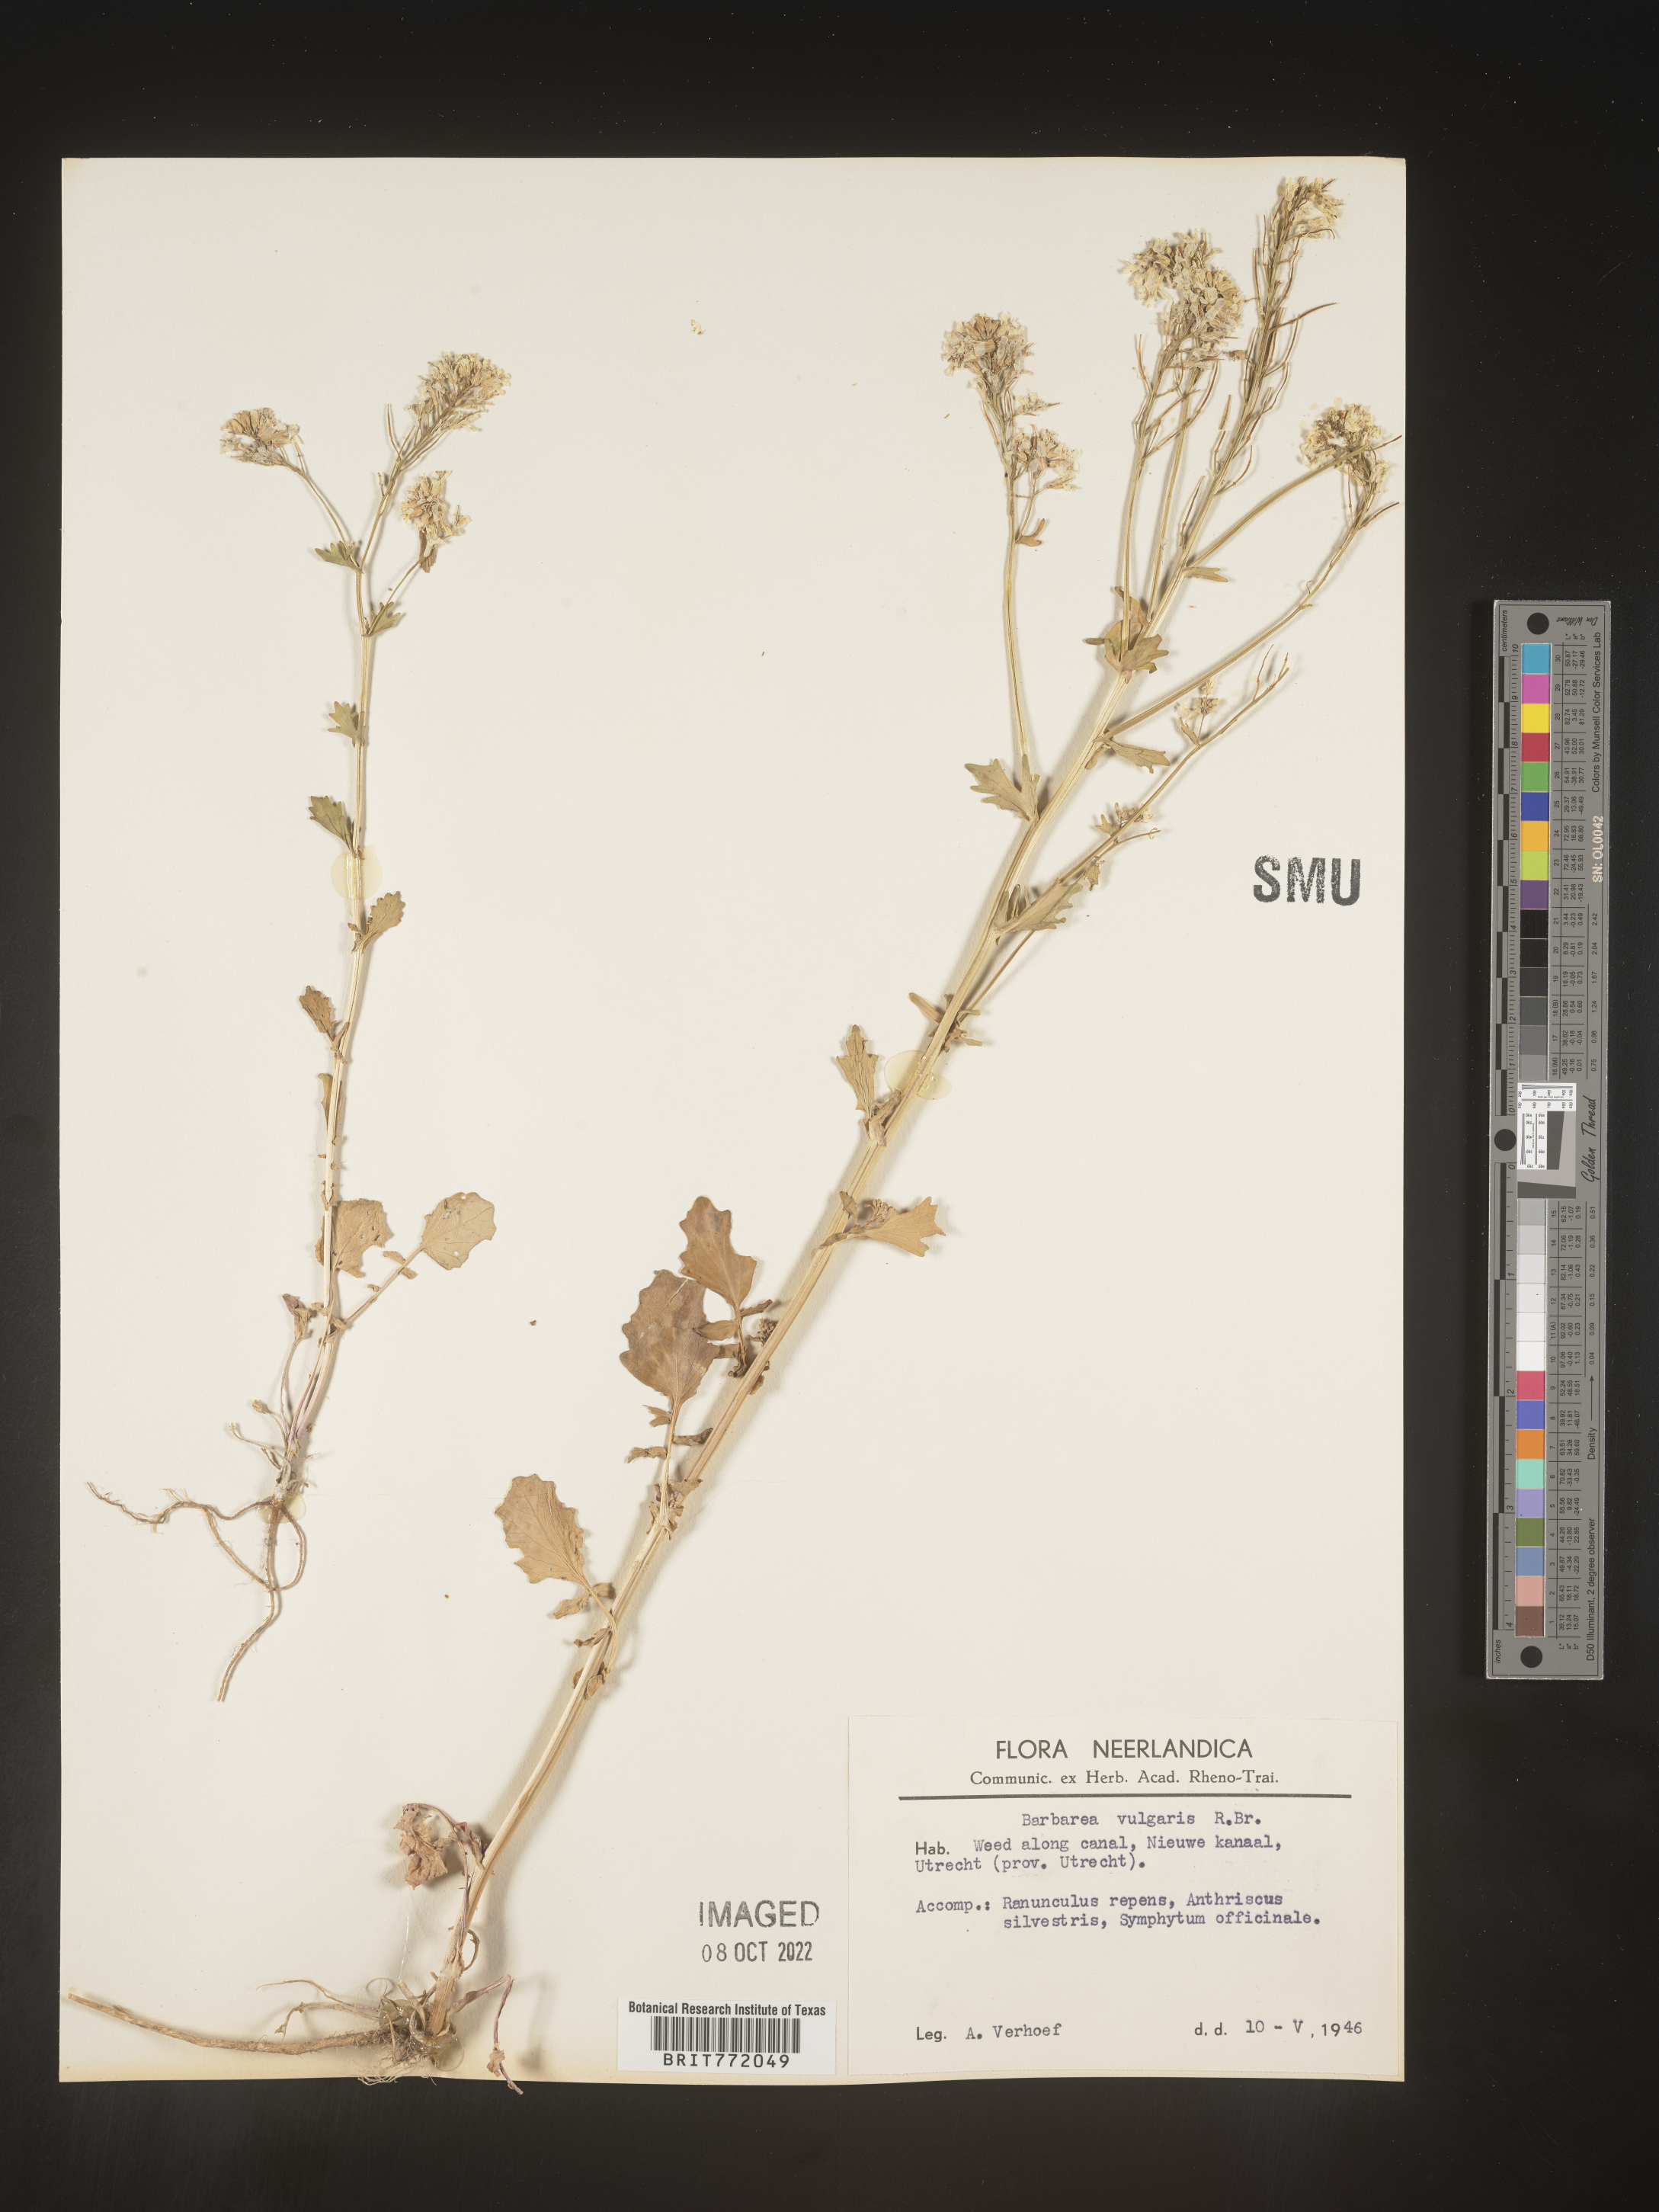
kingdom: Plantae
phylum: Tracheophyta
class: Magnoliopsida
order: Brassicales
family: Brassicaceae
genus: Barbarea
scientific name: Barbarea
